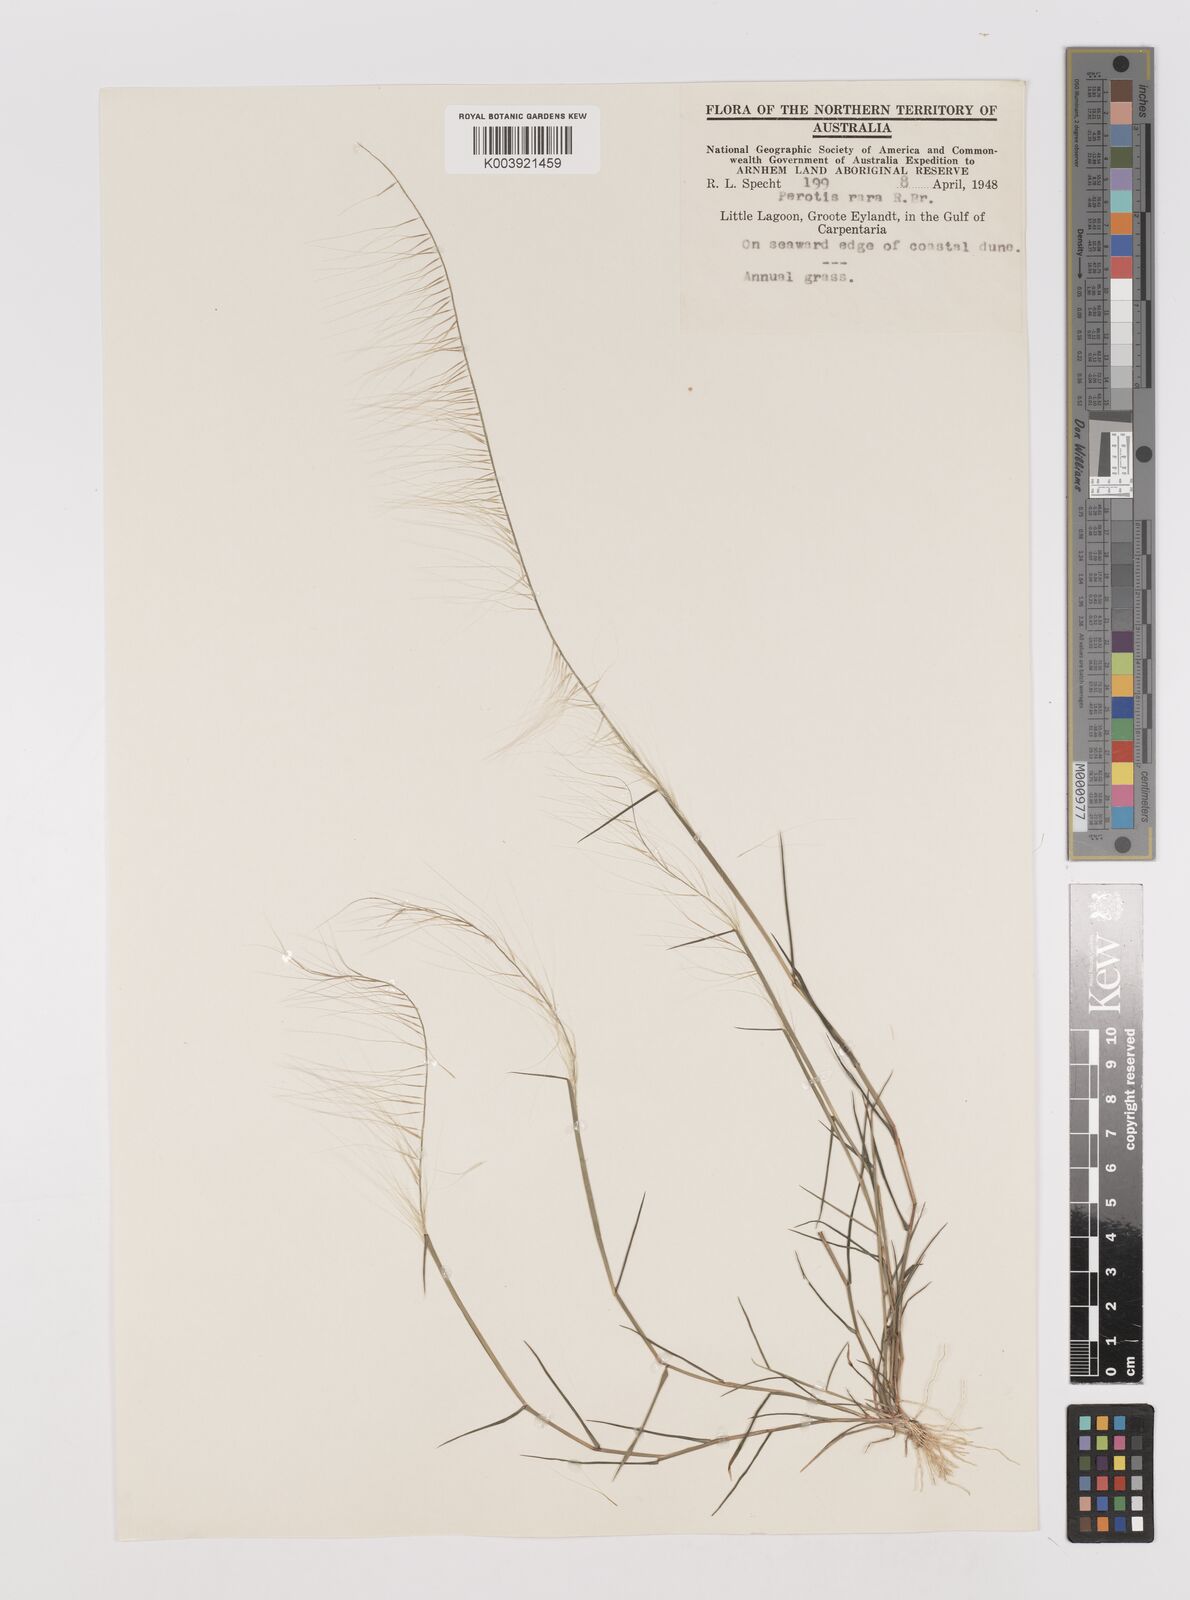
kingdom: Plantae
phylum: Tracheophyta
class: Liliopsida
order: Poales
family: Poaceae
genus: Perotis
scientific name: Perotis rara
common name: Comet grass
